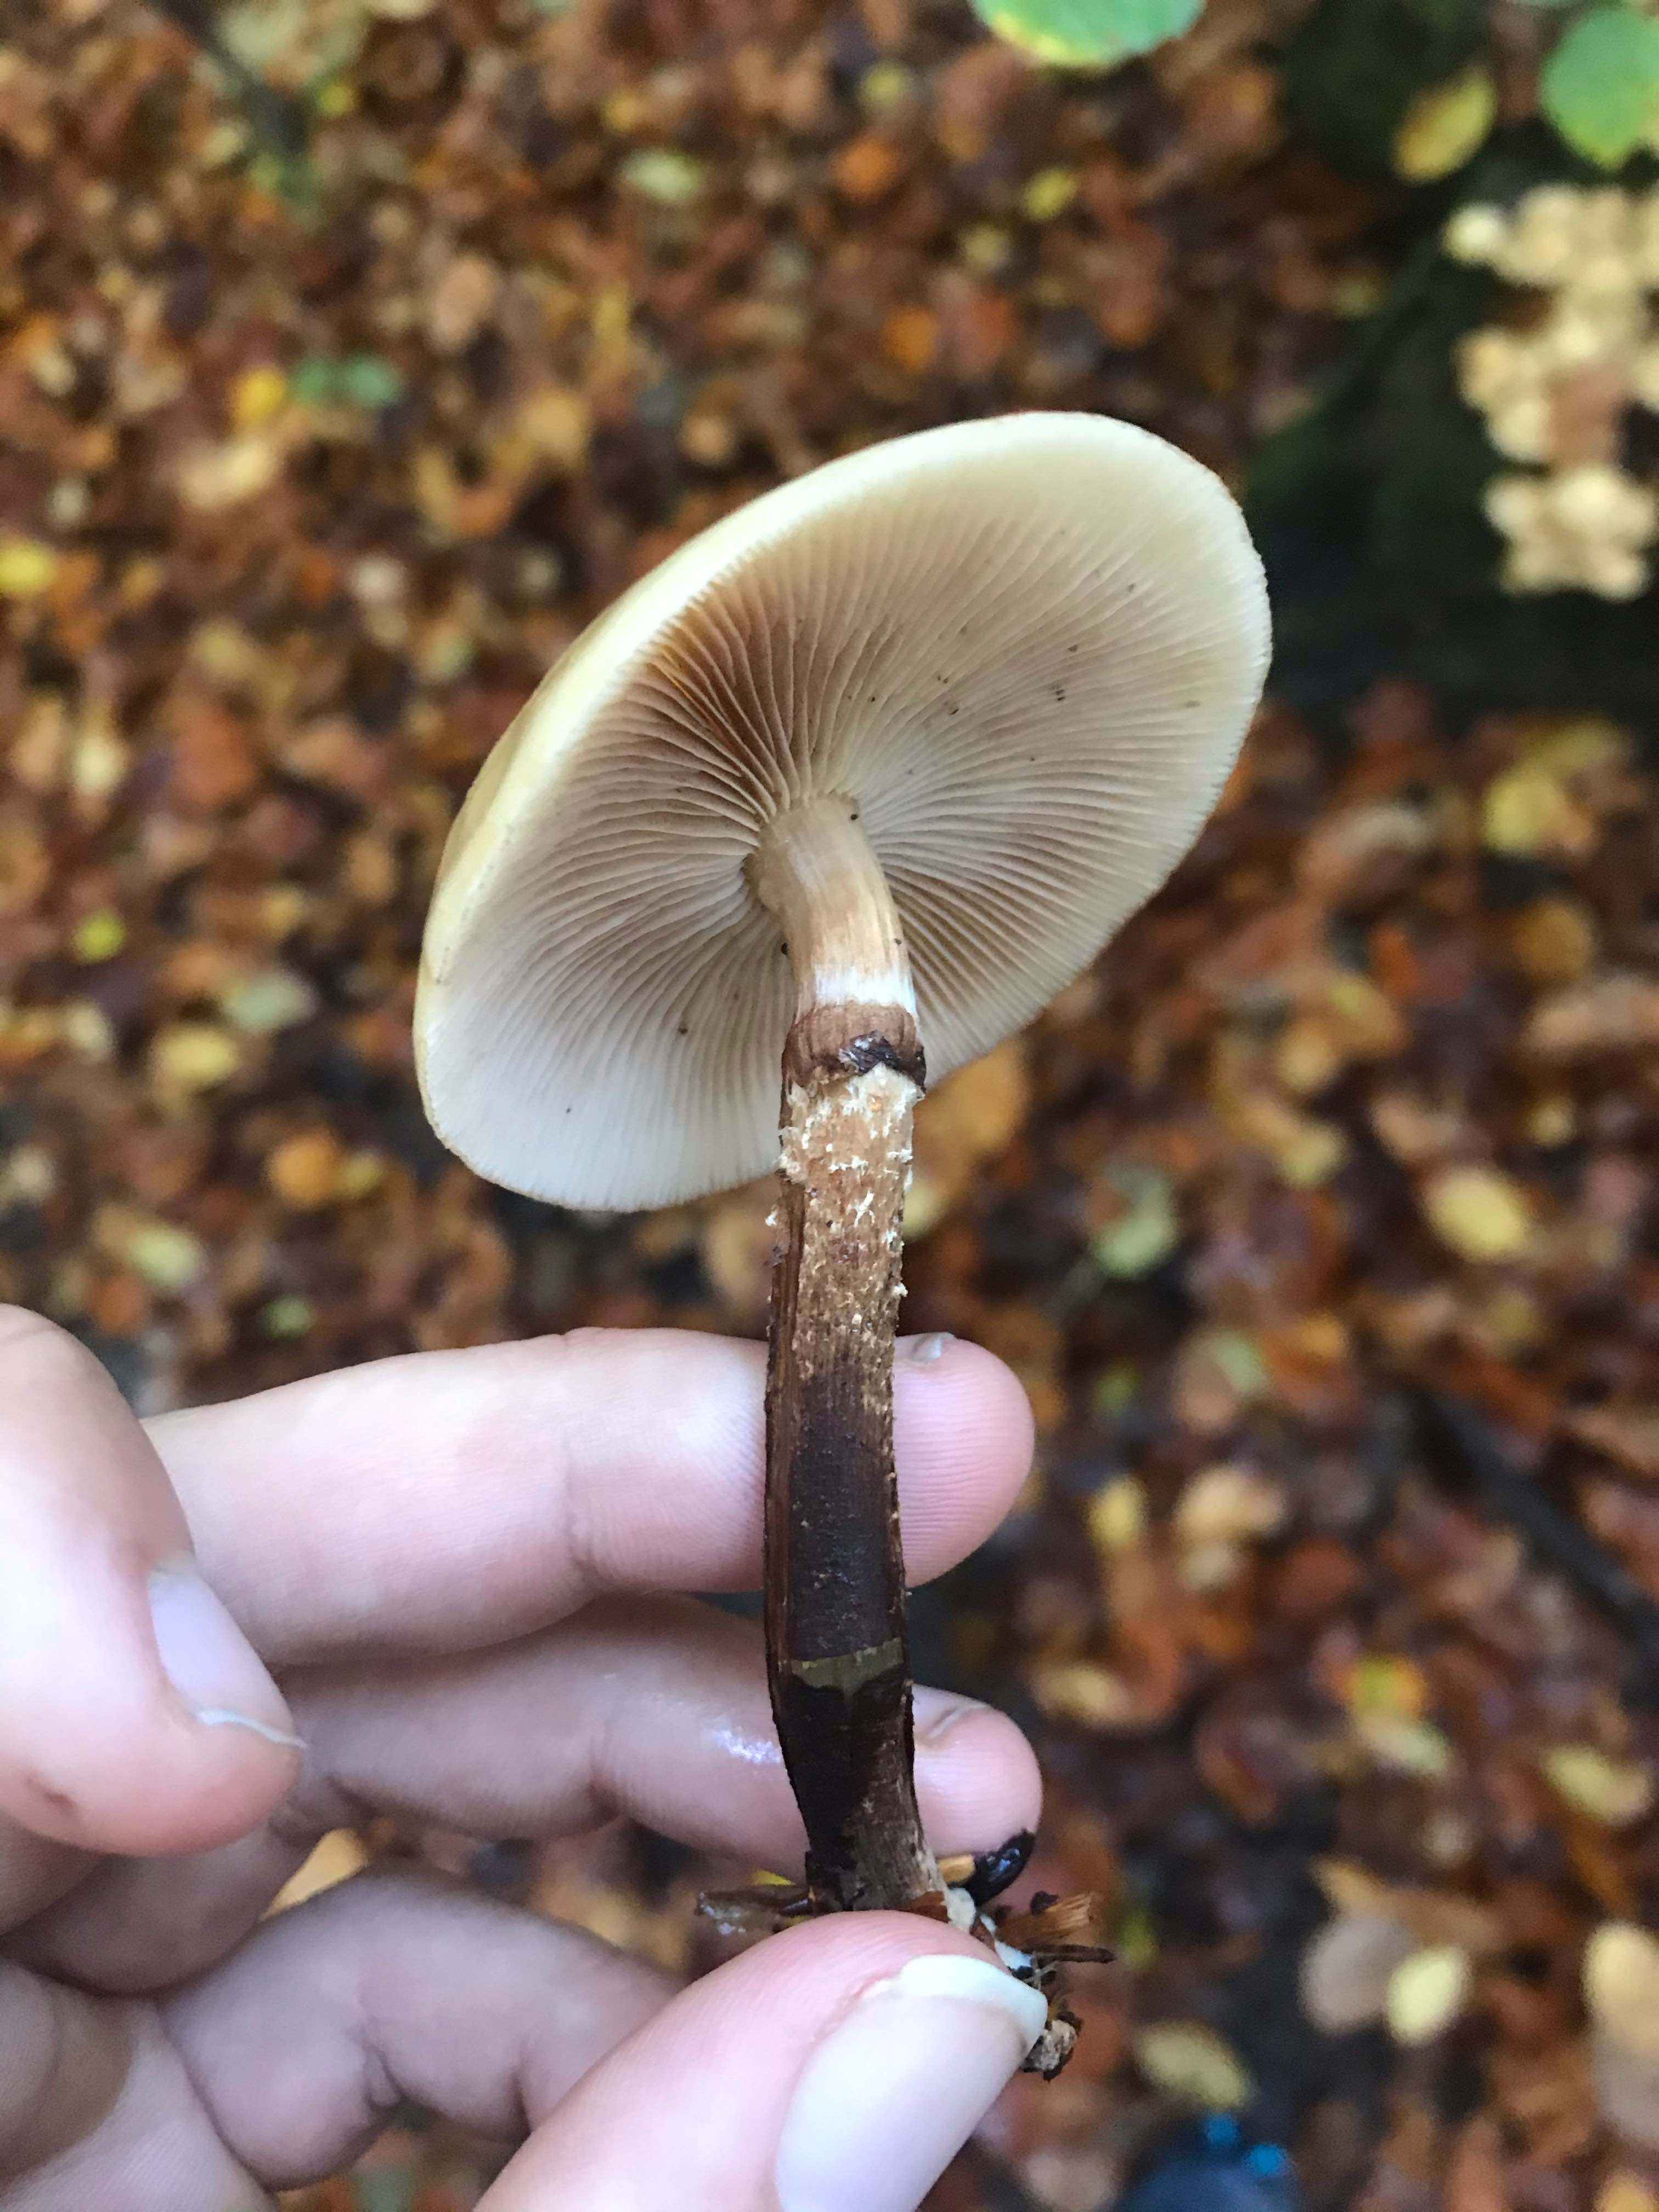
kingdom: Fungi
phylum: Basidiomycota
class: Agaricomycetes
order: Agaricales
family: Strophariaceae
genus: Kuehneromyces
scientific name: Kuehneromyces mutabilis
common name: foranderlig skælhat
